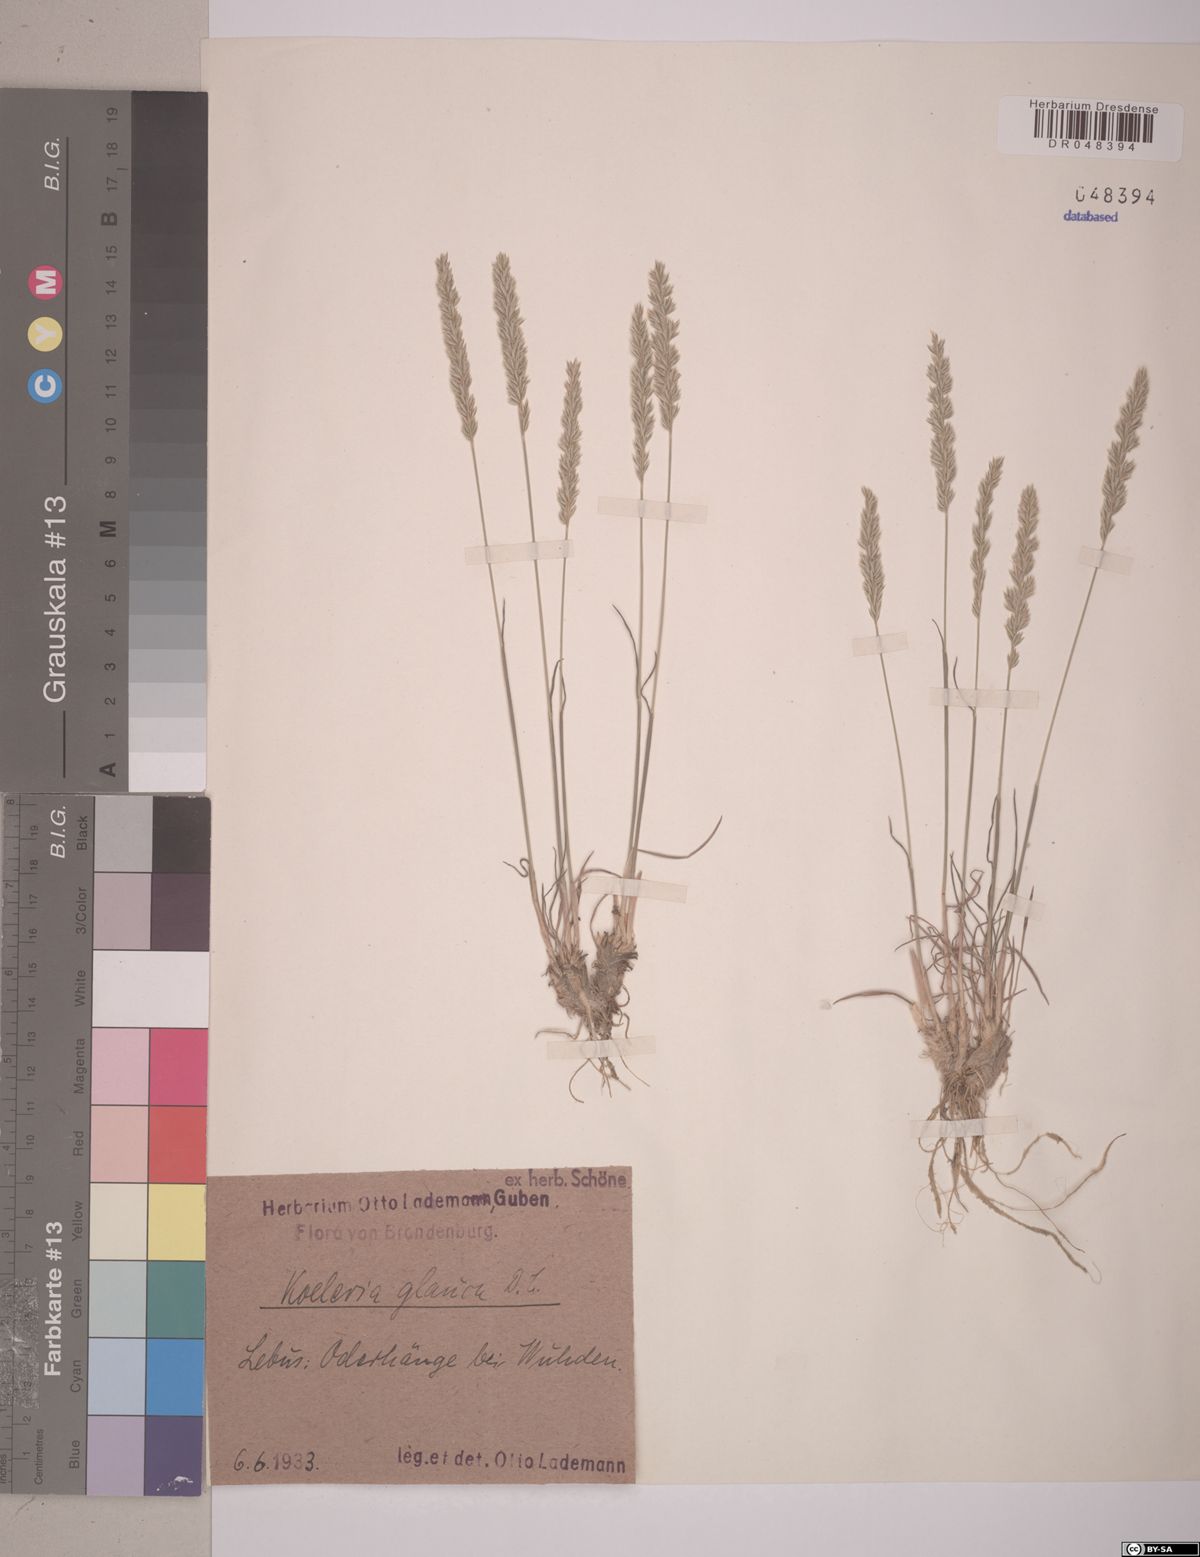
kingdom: Plantae
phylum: Tracheophyta
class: Liliopsida
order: Poales
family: Poaceae
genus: Koeleria
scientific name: Koeleria glauca
